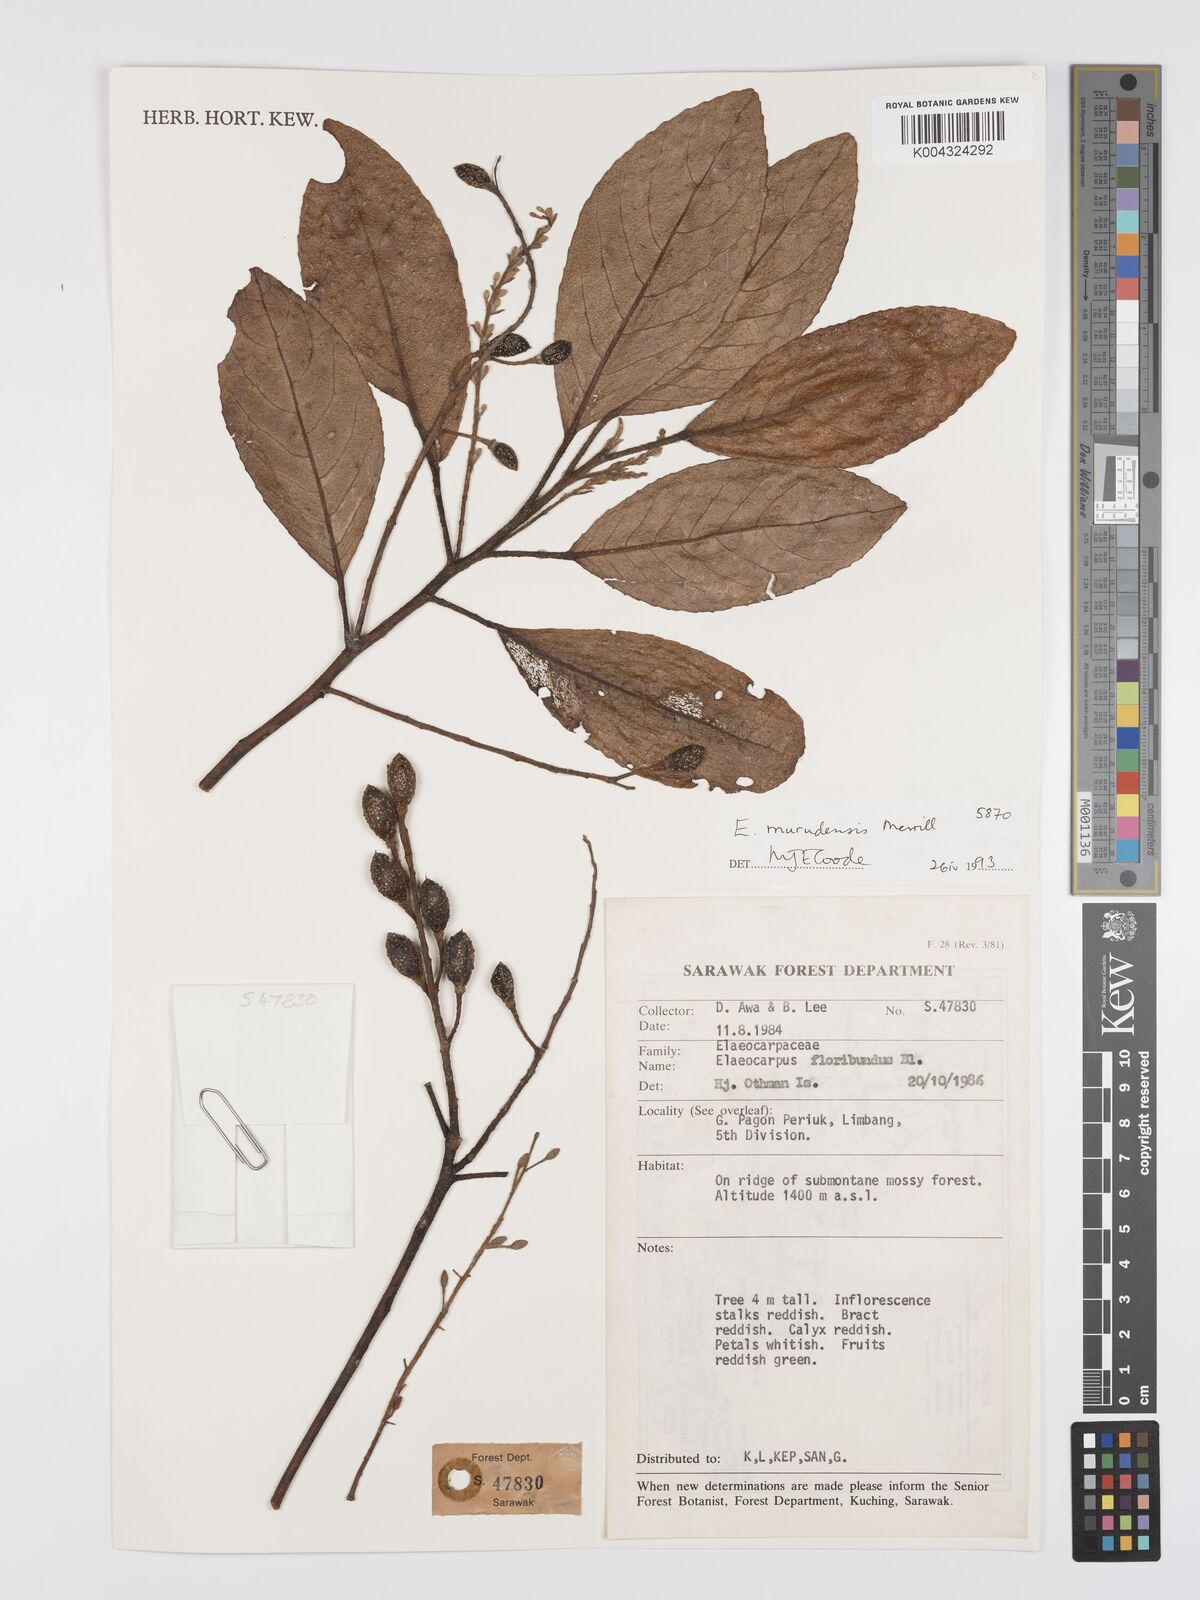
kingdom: Plantae
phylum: Tracheophyta
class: Magnoliopsida
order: Oxalidales
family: Elaeocarpaceae
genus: Elaeocarpus
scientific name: Elaeocarpus murudensis
